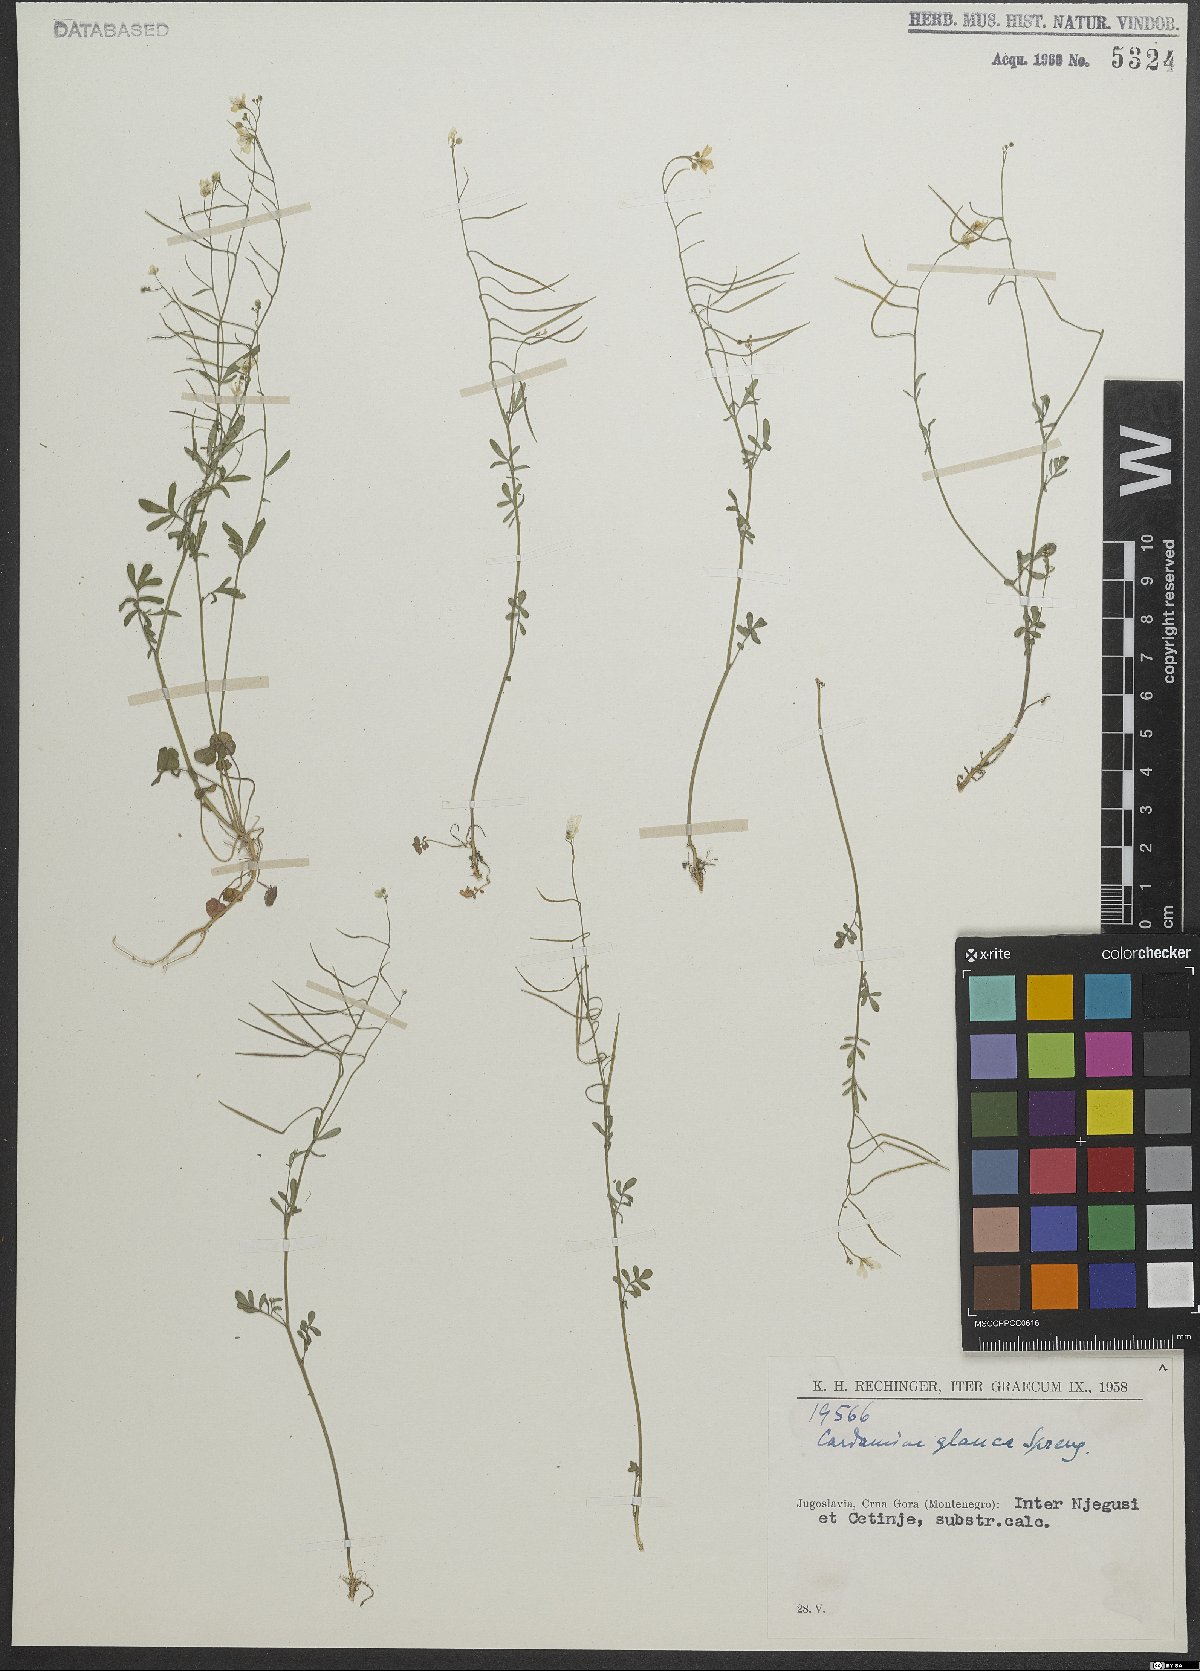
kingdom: Plantae
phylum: Tracheophyta
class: Magnoliopsida
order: Brassicales
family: Brassicaceae
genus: Cardamine
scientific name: Cardamine glauca
